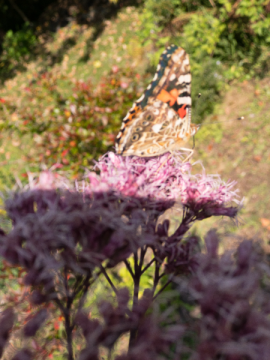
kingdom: Animalia
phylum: Arthropoda
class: Insecta
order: Lepidoptera
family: Nymphalidae
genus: Vanessa
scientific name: Vanessa cardui
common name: Painted Lady
